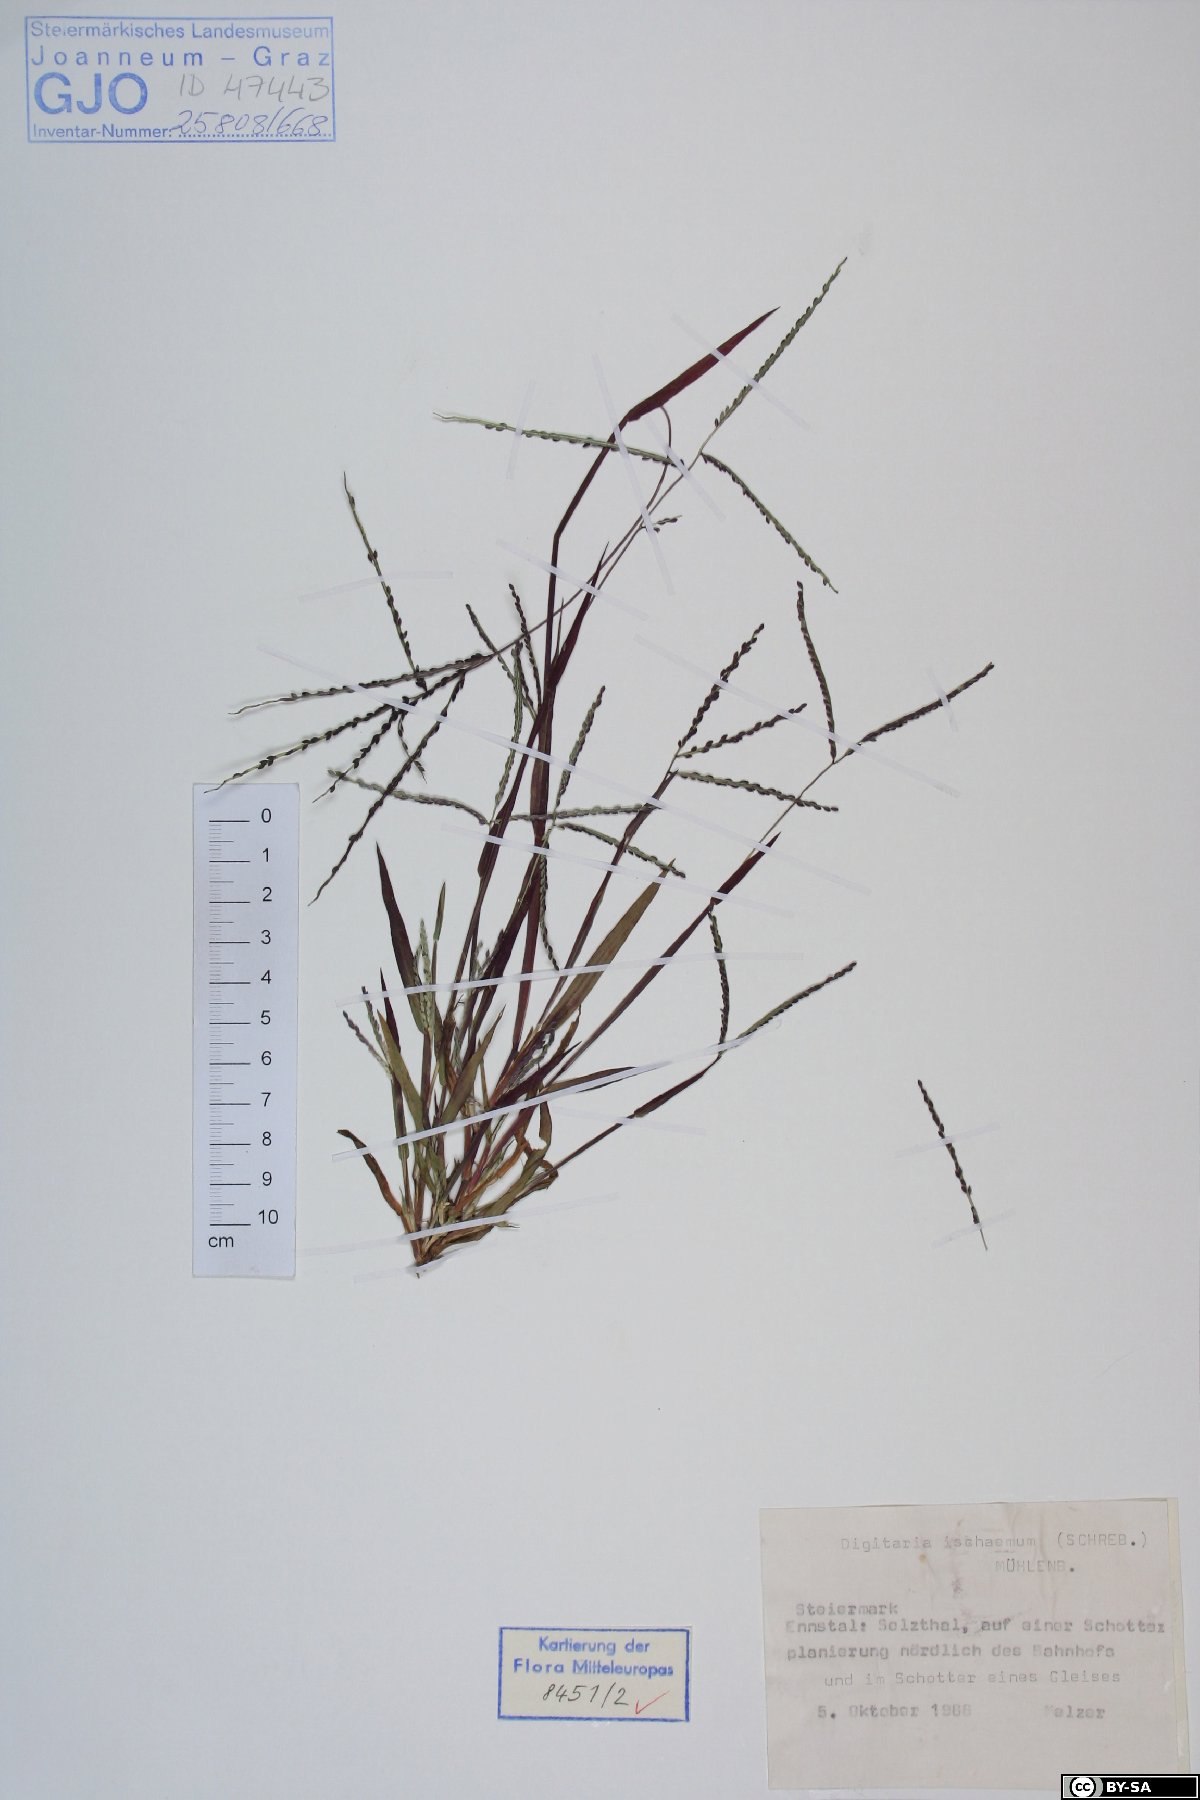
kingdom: Plantae
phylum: Tracheophyta
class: Liliopsida
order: Poales
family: Poaceae
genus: Digitaria
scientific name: Digitaria ischaemum
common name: Smooth crabgrass
